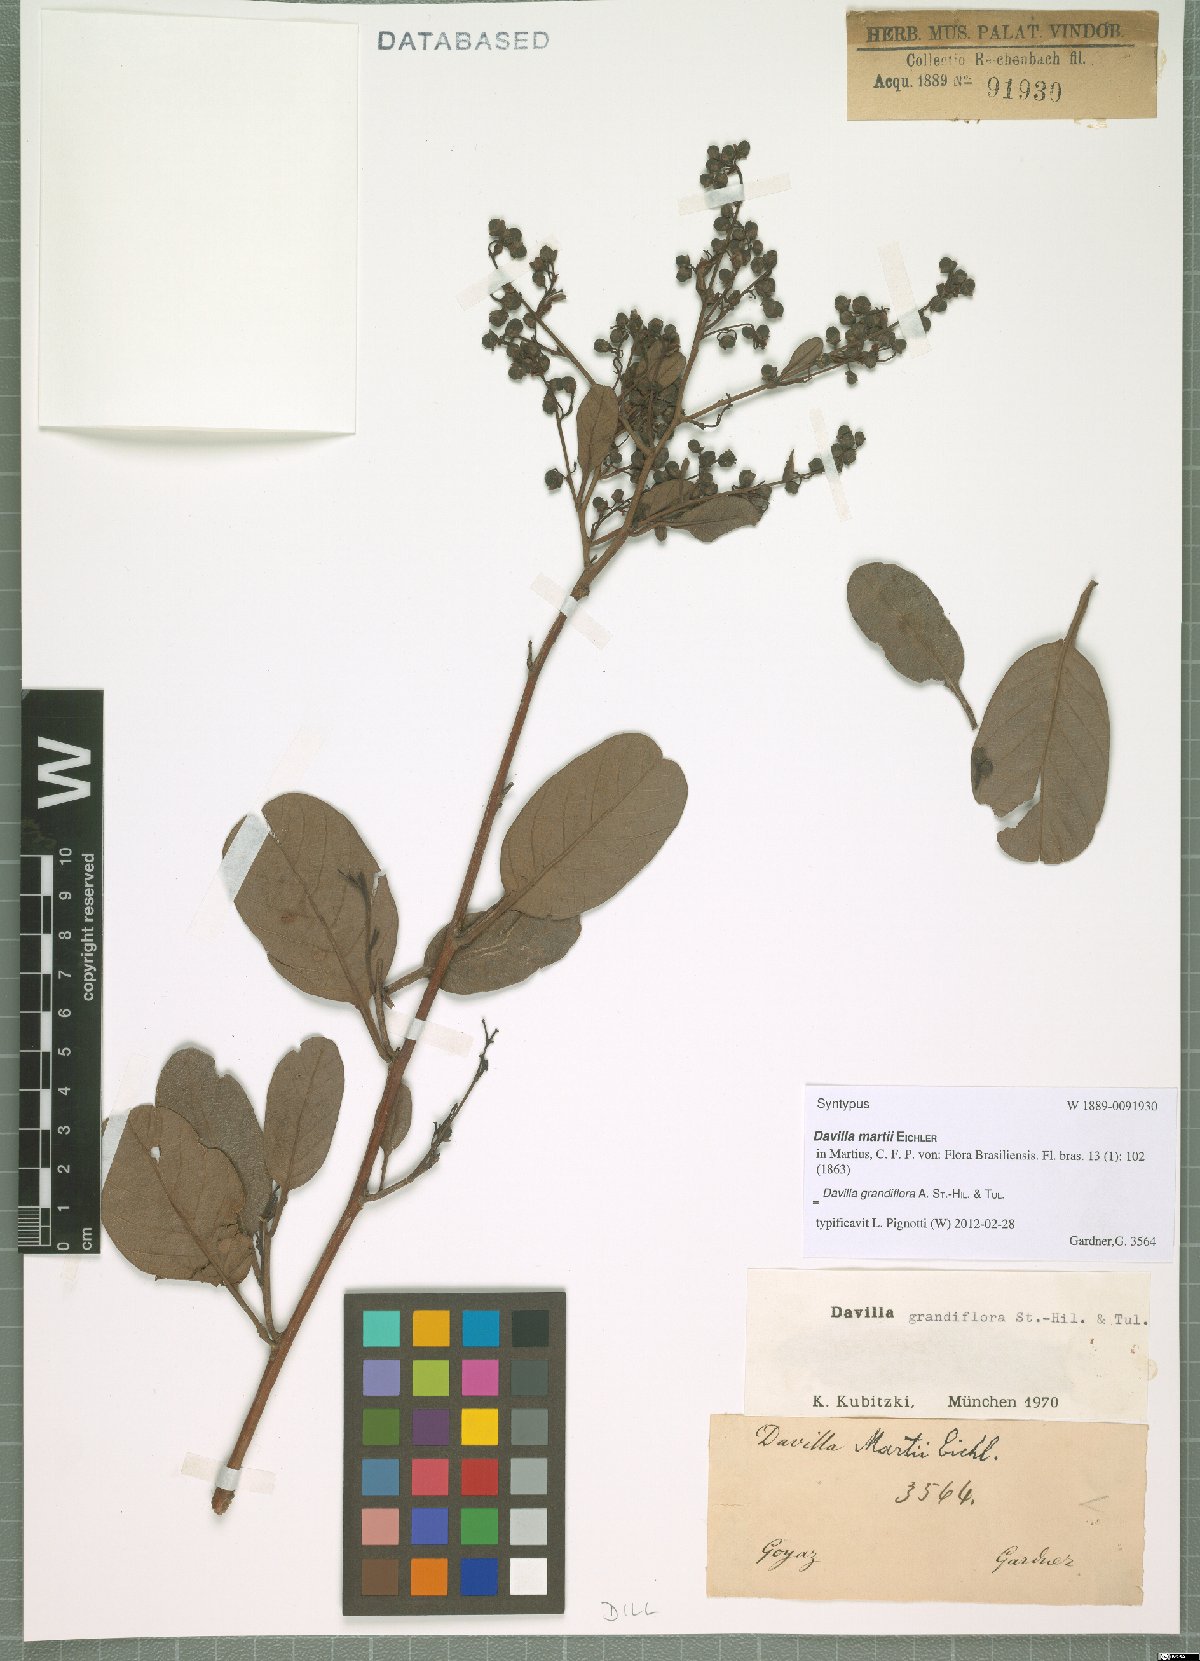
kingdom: Plantae
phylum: Tracheophyta
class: Magnoliopsida
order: Dilleniales
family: Dilleniaceae
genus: Davilla
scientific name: Davilla grandiflora
